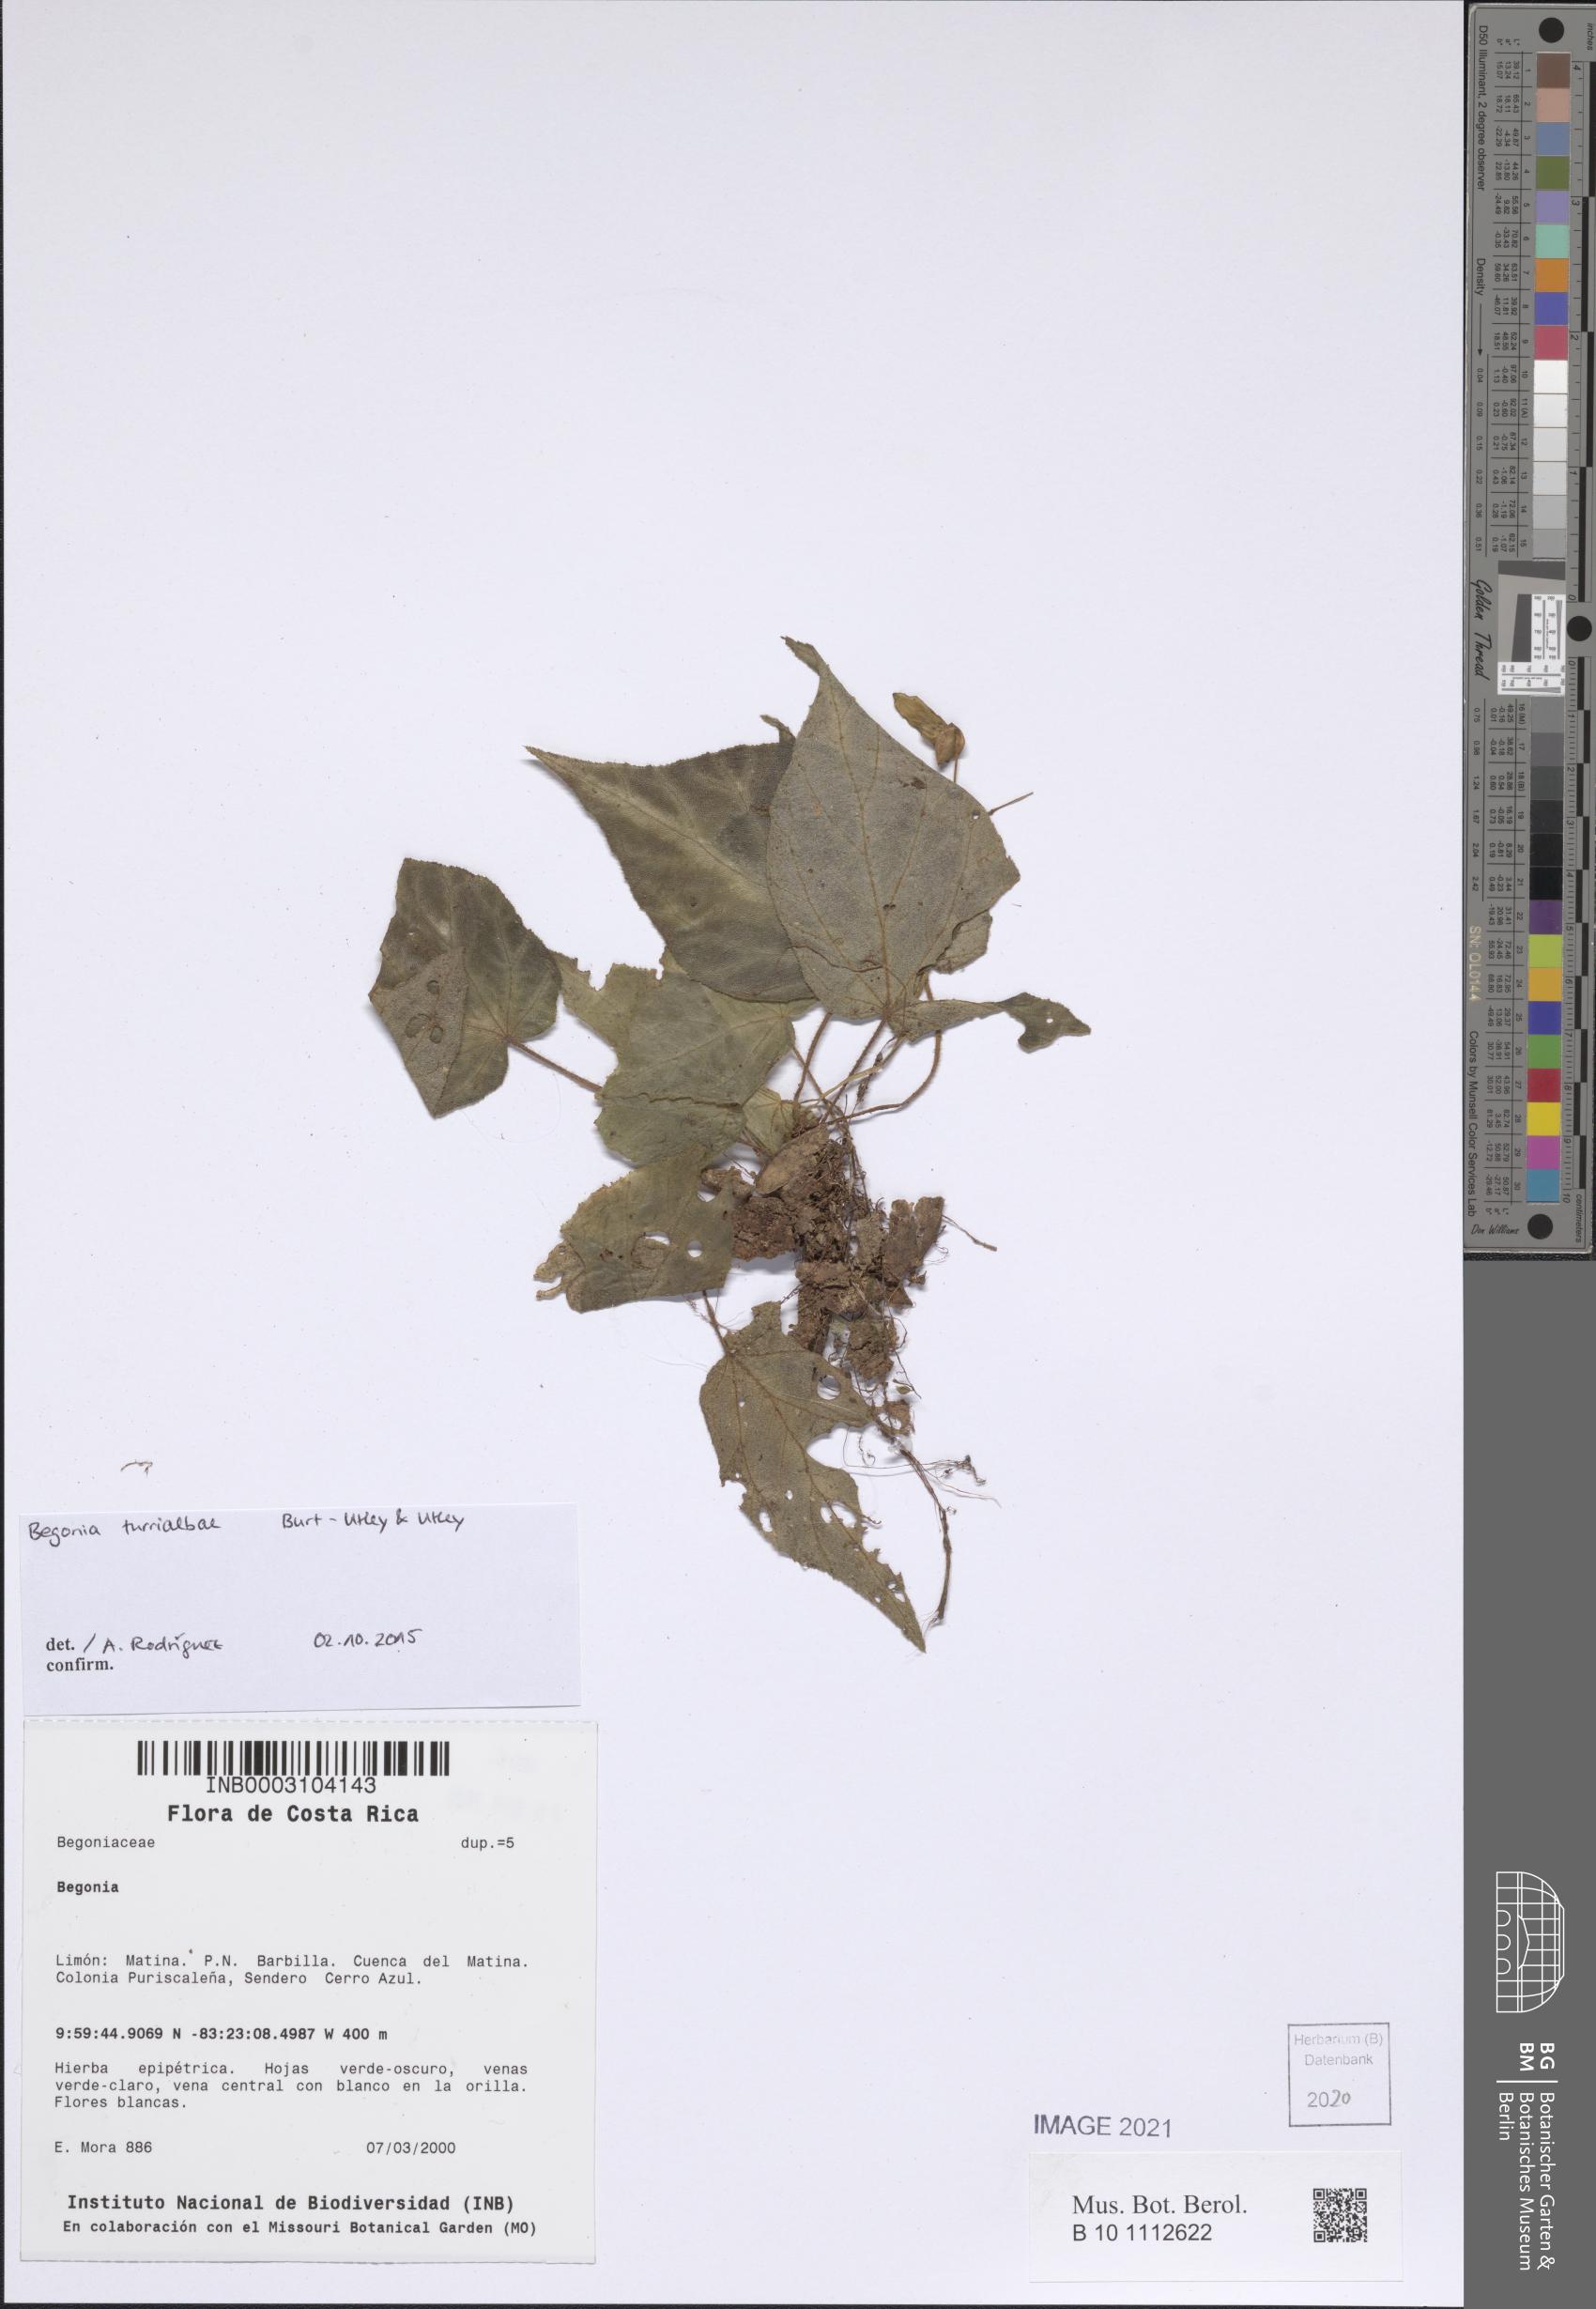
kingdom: Plantae
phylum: Tracheophyta
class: Magnoliopsida
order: Cucurbitales
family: Begoniaceae
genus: Begonia
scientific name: Begonia carletonii
